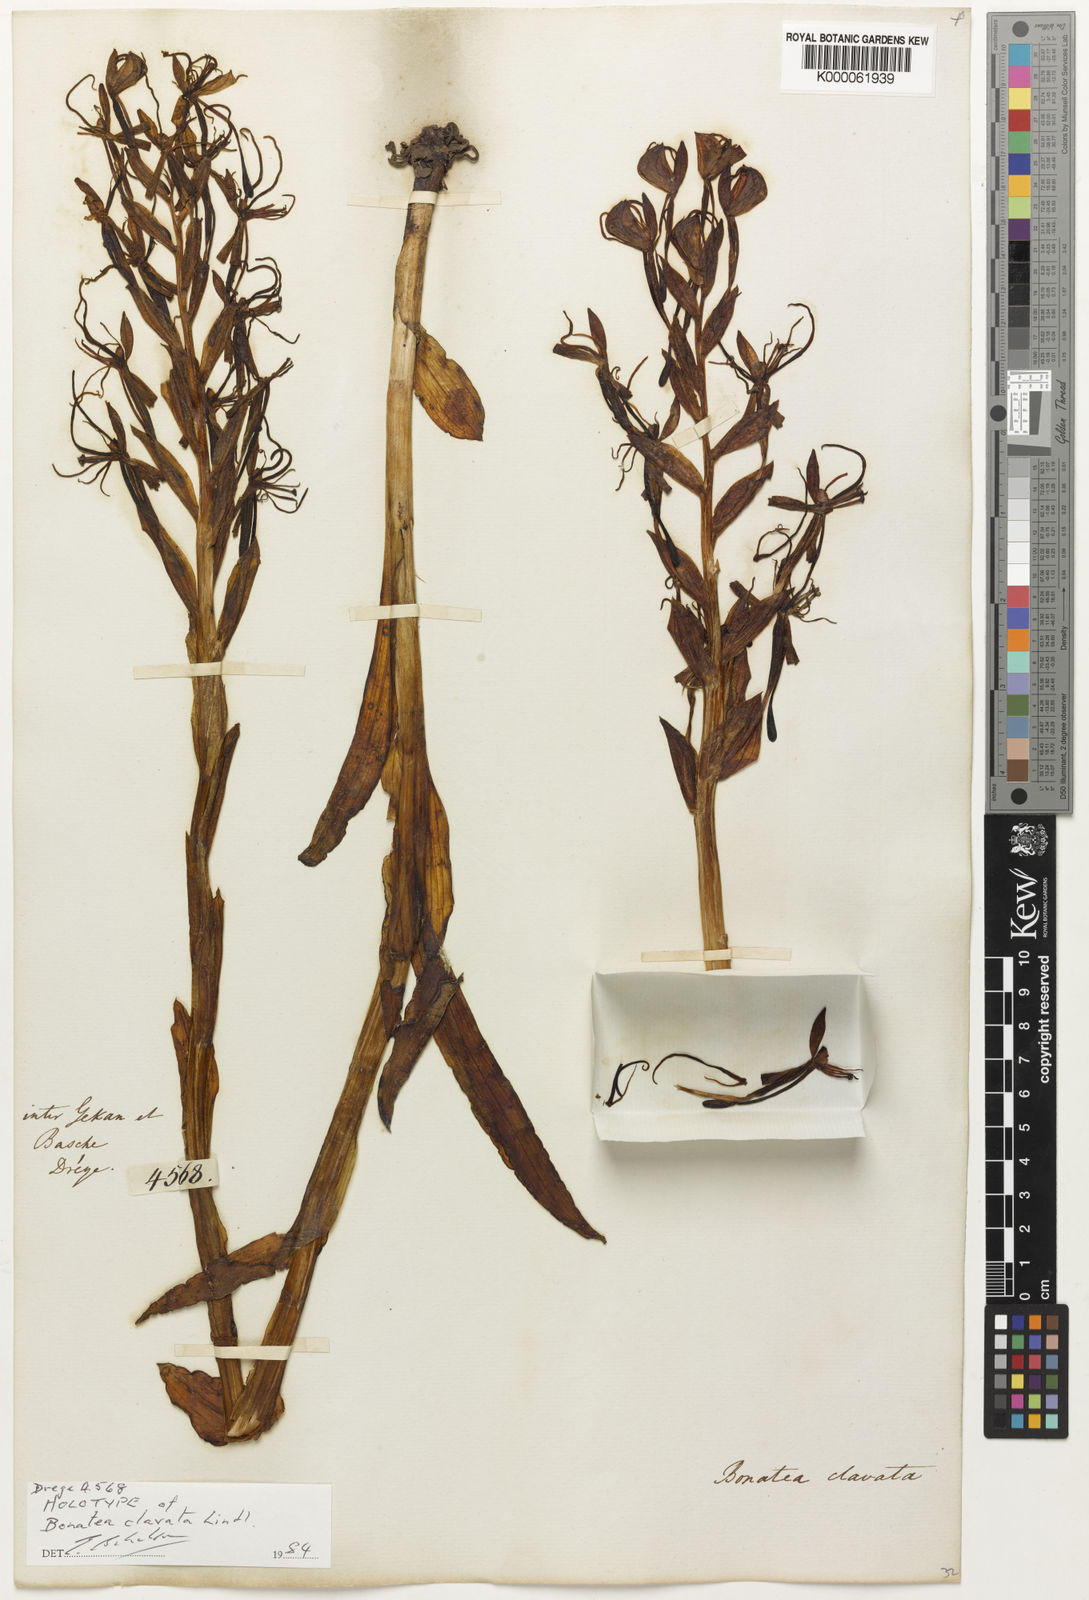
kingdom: Plantae
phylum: Tracheophyta
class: Liliopsida
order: Asparagales
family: Orchidaceae
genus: Habenaria
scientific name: Habenaria
